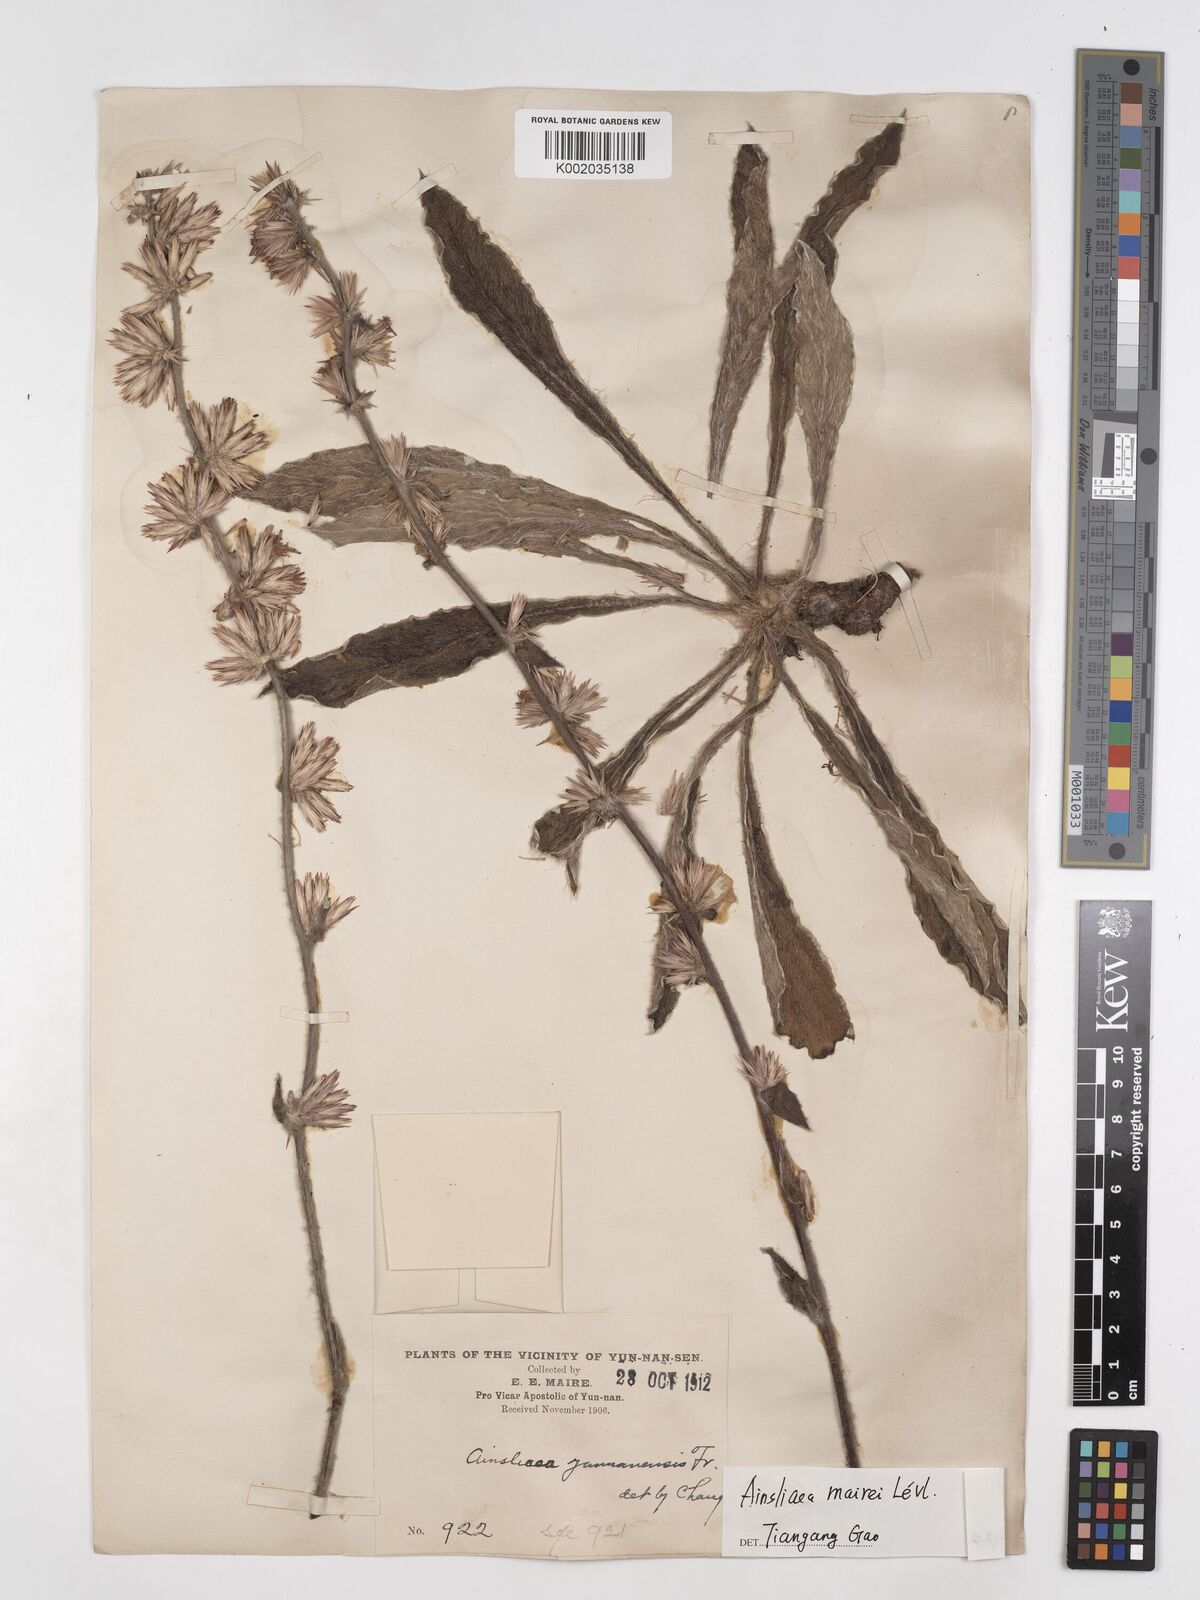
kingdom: Plantae
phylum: Tracheophyta
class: Magnoliopsida
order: Asterales
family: Asteraceae
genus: Ainsliaea
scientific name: Ainsliaea mairei
